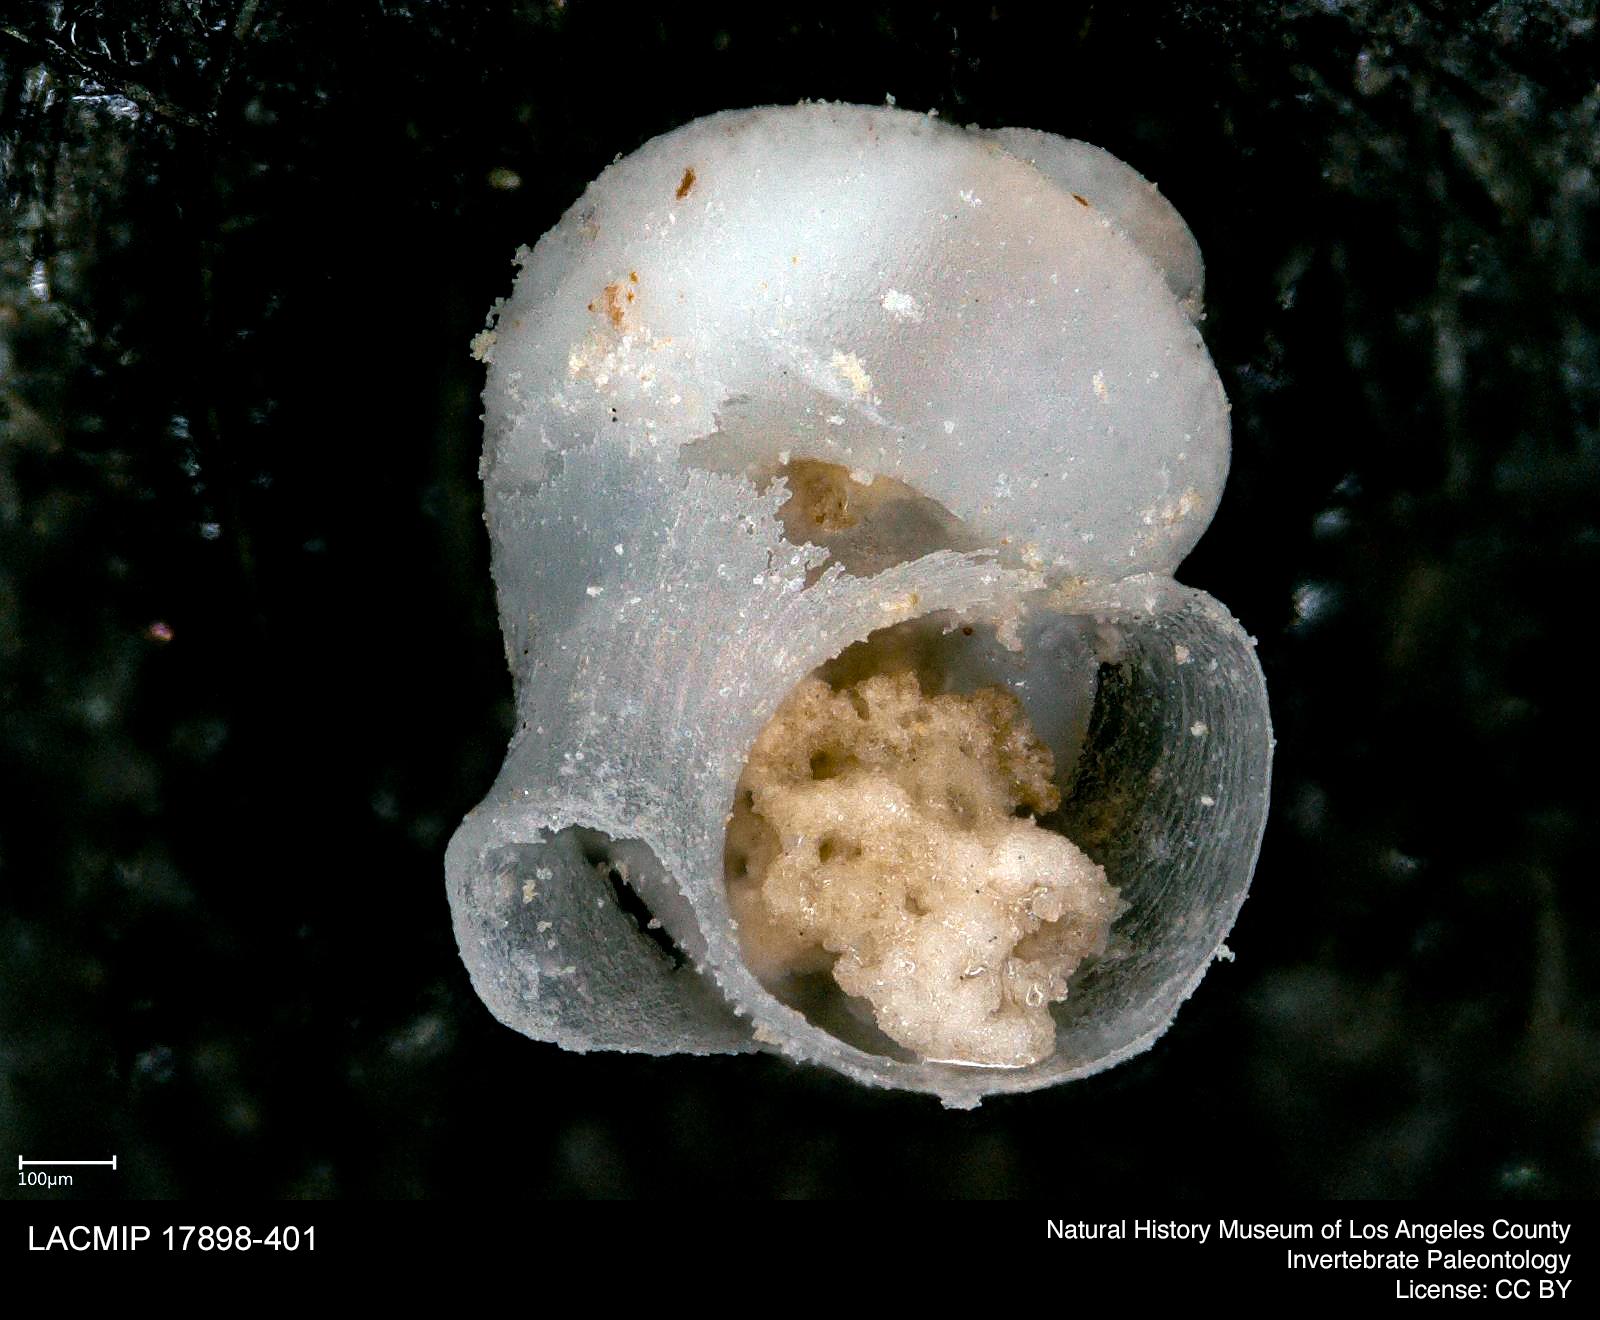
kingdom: Animalia
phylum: Mollusca
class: Gastropoda
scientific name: Gastropoda
